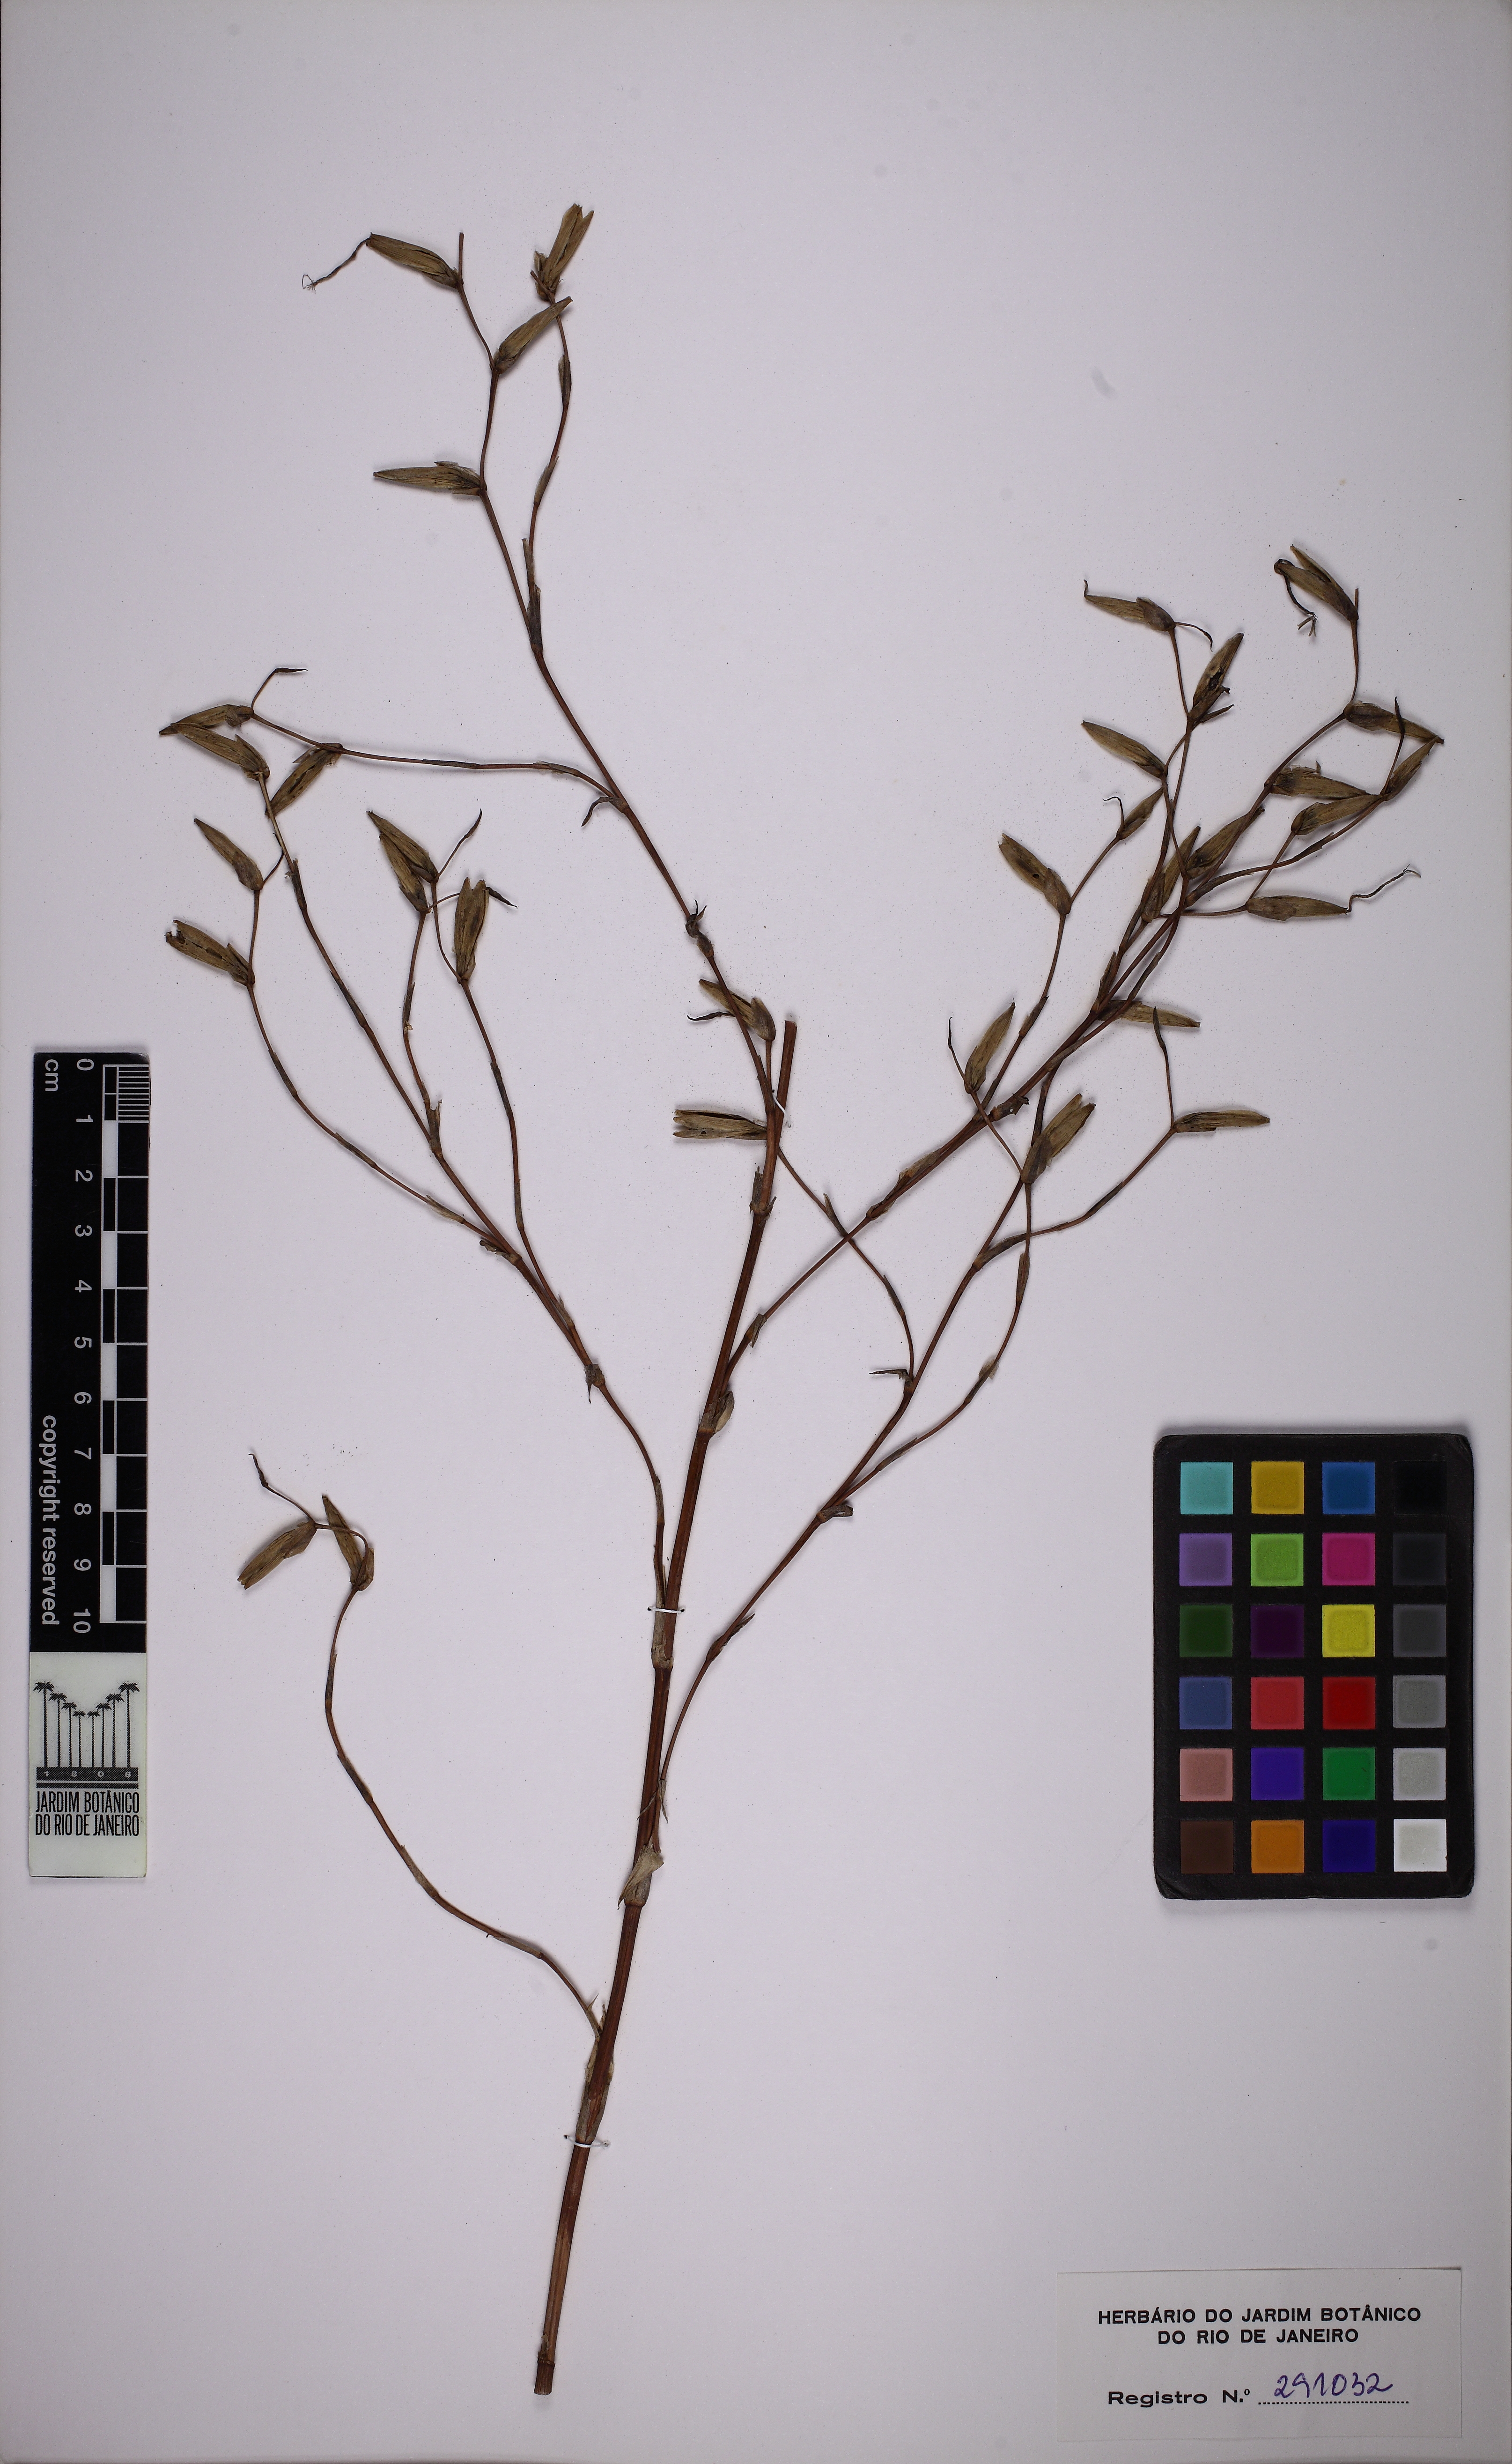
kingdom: Plantae
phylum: Tracheophyta
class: Liliopsida
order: Poales
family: Bromeliaceae
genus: Vriesea
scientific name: Vriesea sparsiflora
